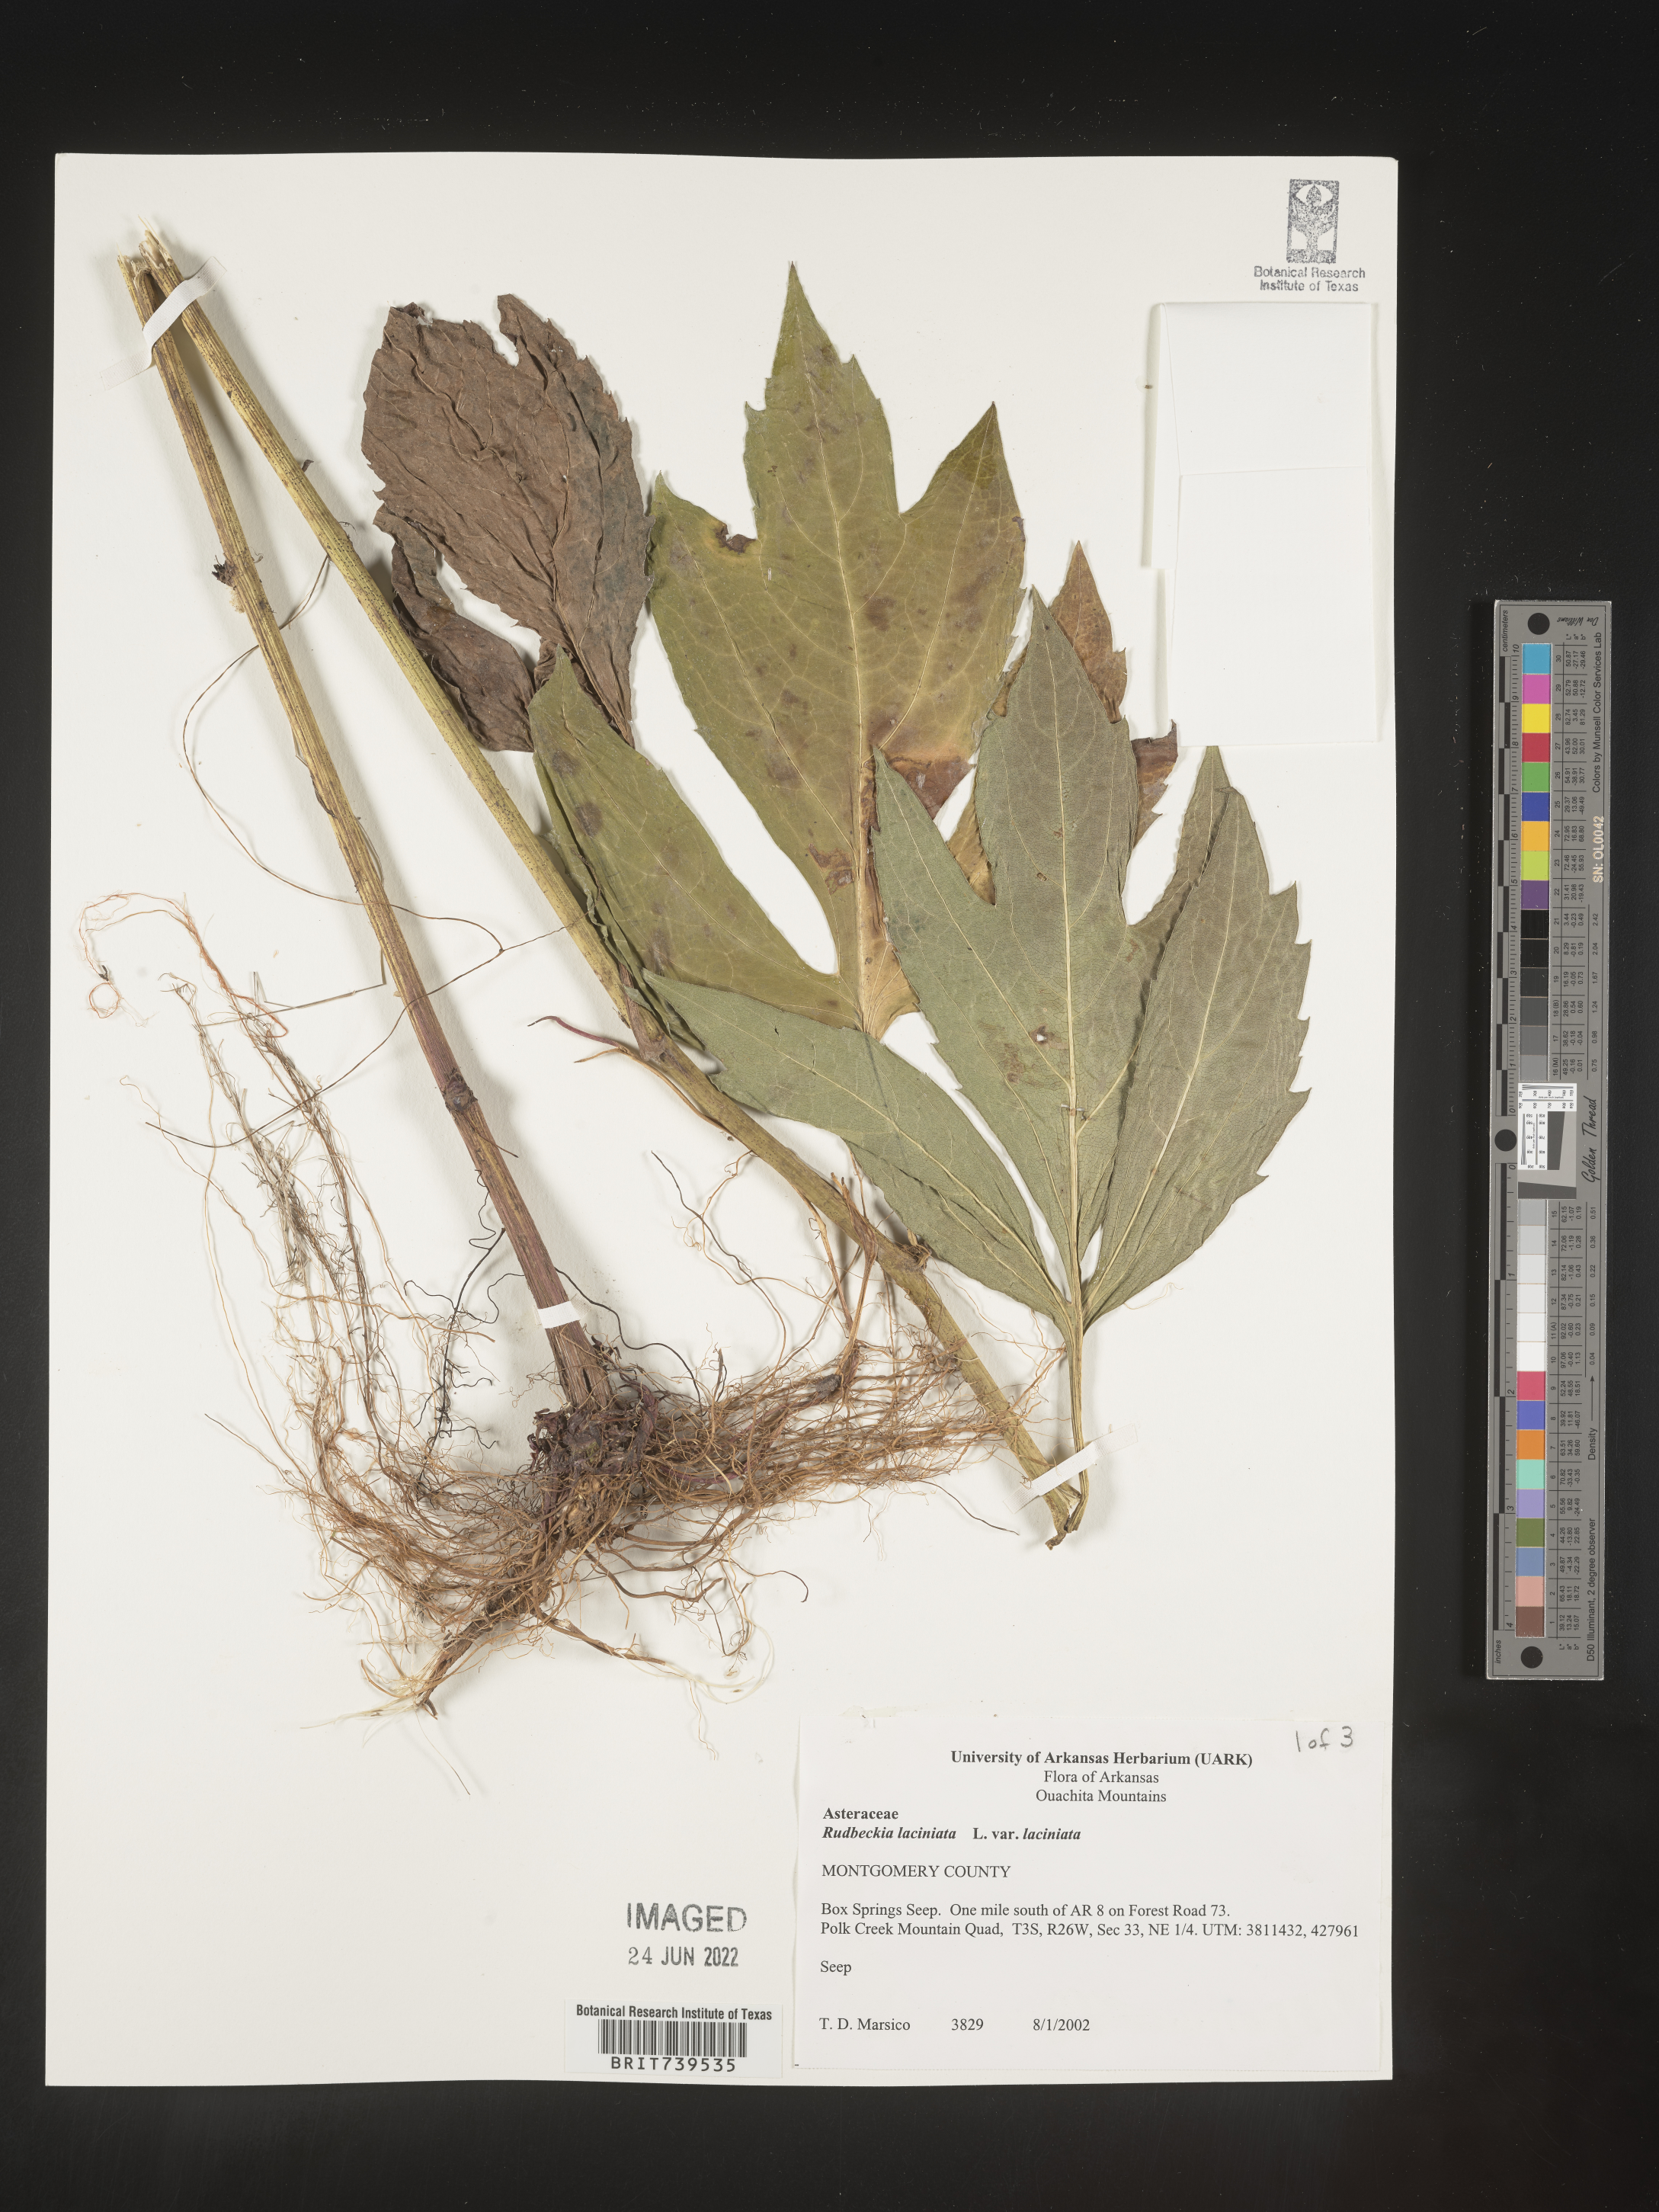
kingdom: Plantae
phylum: Tracheophyta
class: Magnoliopsida
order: Asterales
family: Asteraceae
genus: Rudbeckia
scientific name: Rudbeckia laciniata
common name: Coneflower
